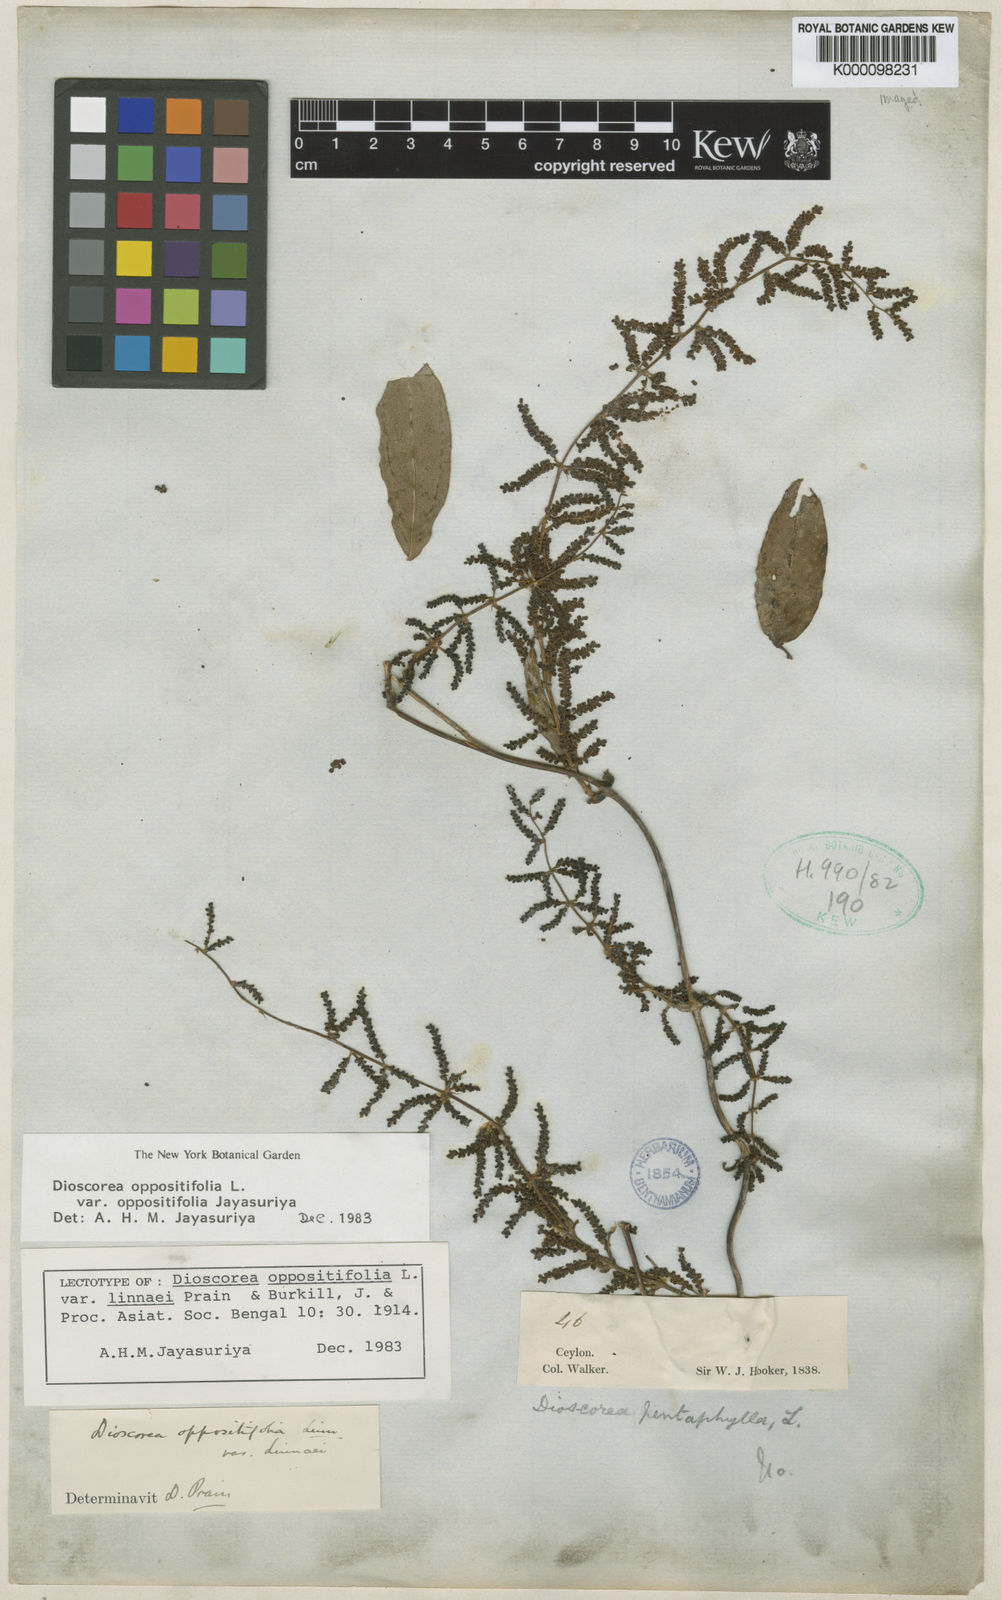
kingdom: Plantae
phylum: Tracheophyta
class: Liliopsida
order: Dioscoreales
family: Dioscoreaceae
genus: Dioscorea
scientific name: Dioscorea oppositifolia
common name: Chinese yam
